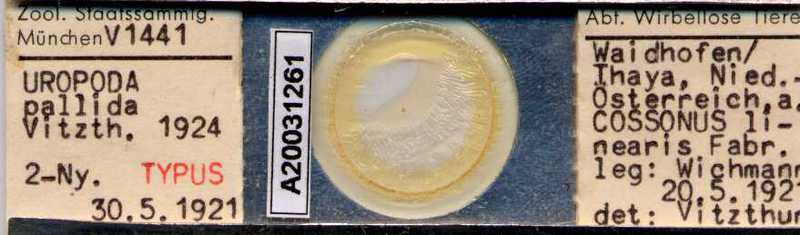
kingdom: Animalia
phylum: Arthropoda
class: Arachnida
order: Mesostigmata
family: Trematuridae
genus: Nenteria
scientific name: Nenteria pallida
